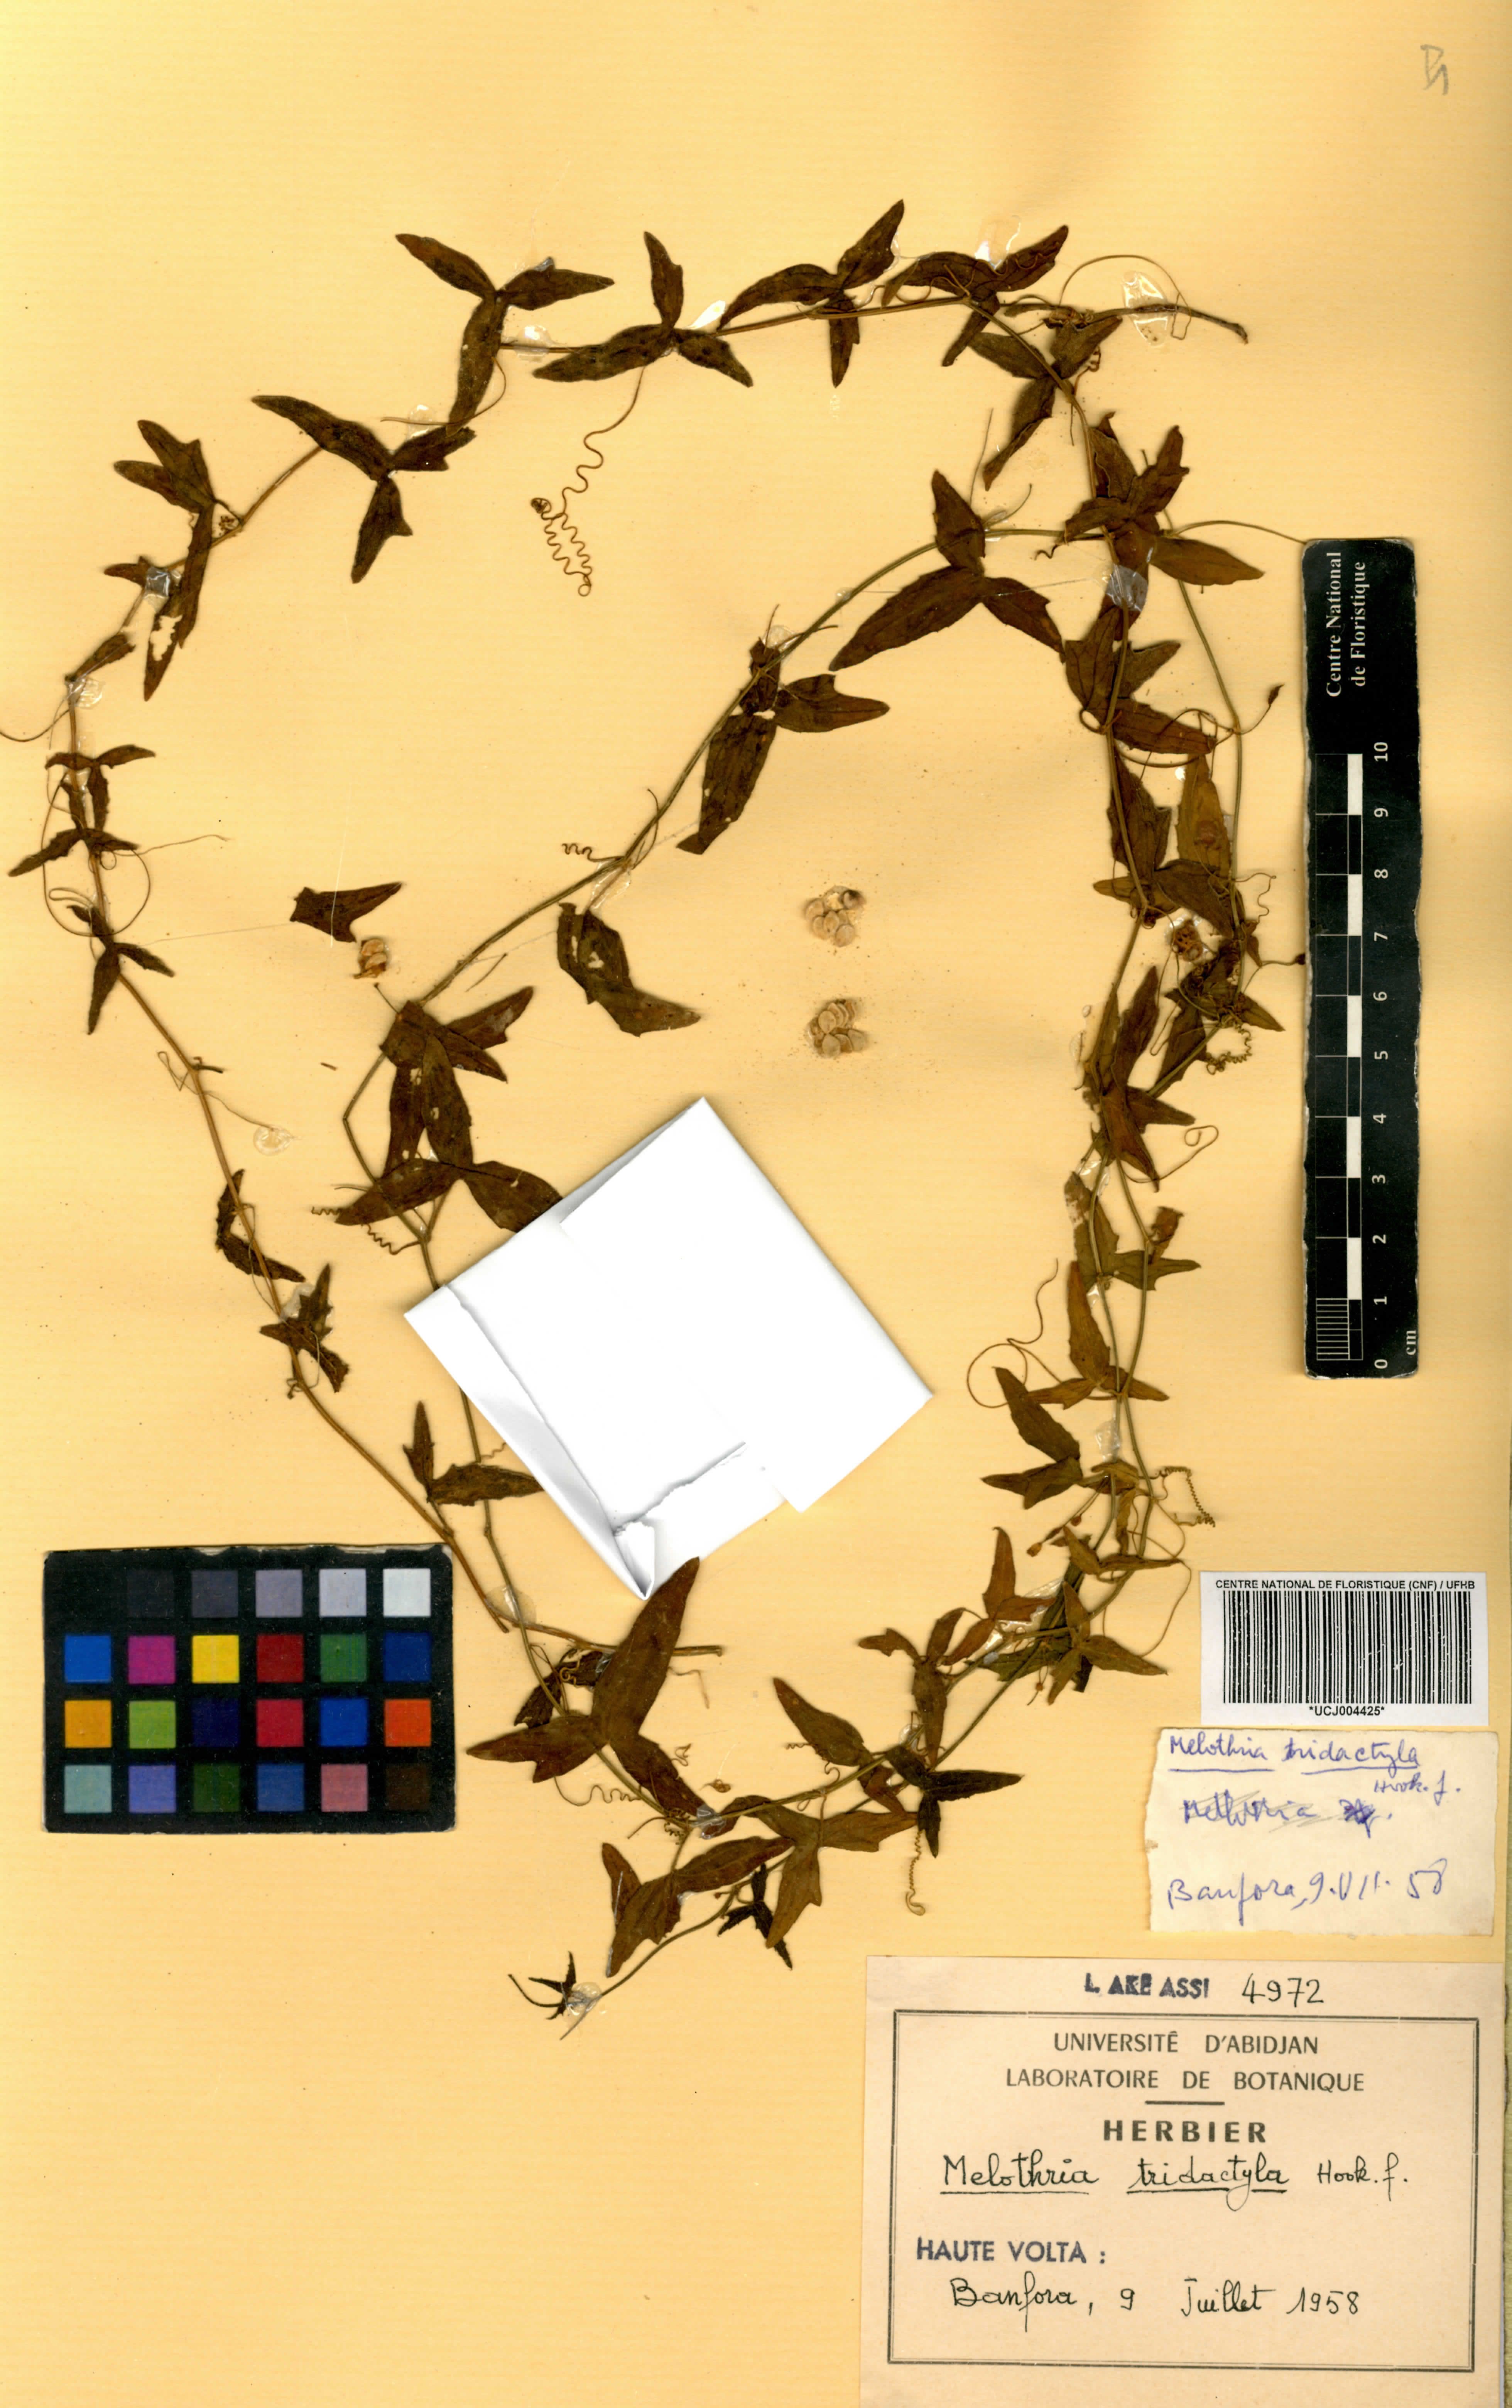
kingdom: Plantae
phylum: Tracheophyta
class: Magnoliopsida
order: Cucurbitales
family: Cucurbitaceae
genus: Zehneria
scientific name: Zehneria thwaitesii
